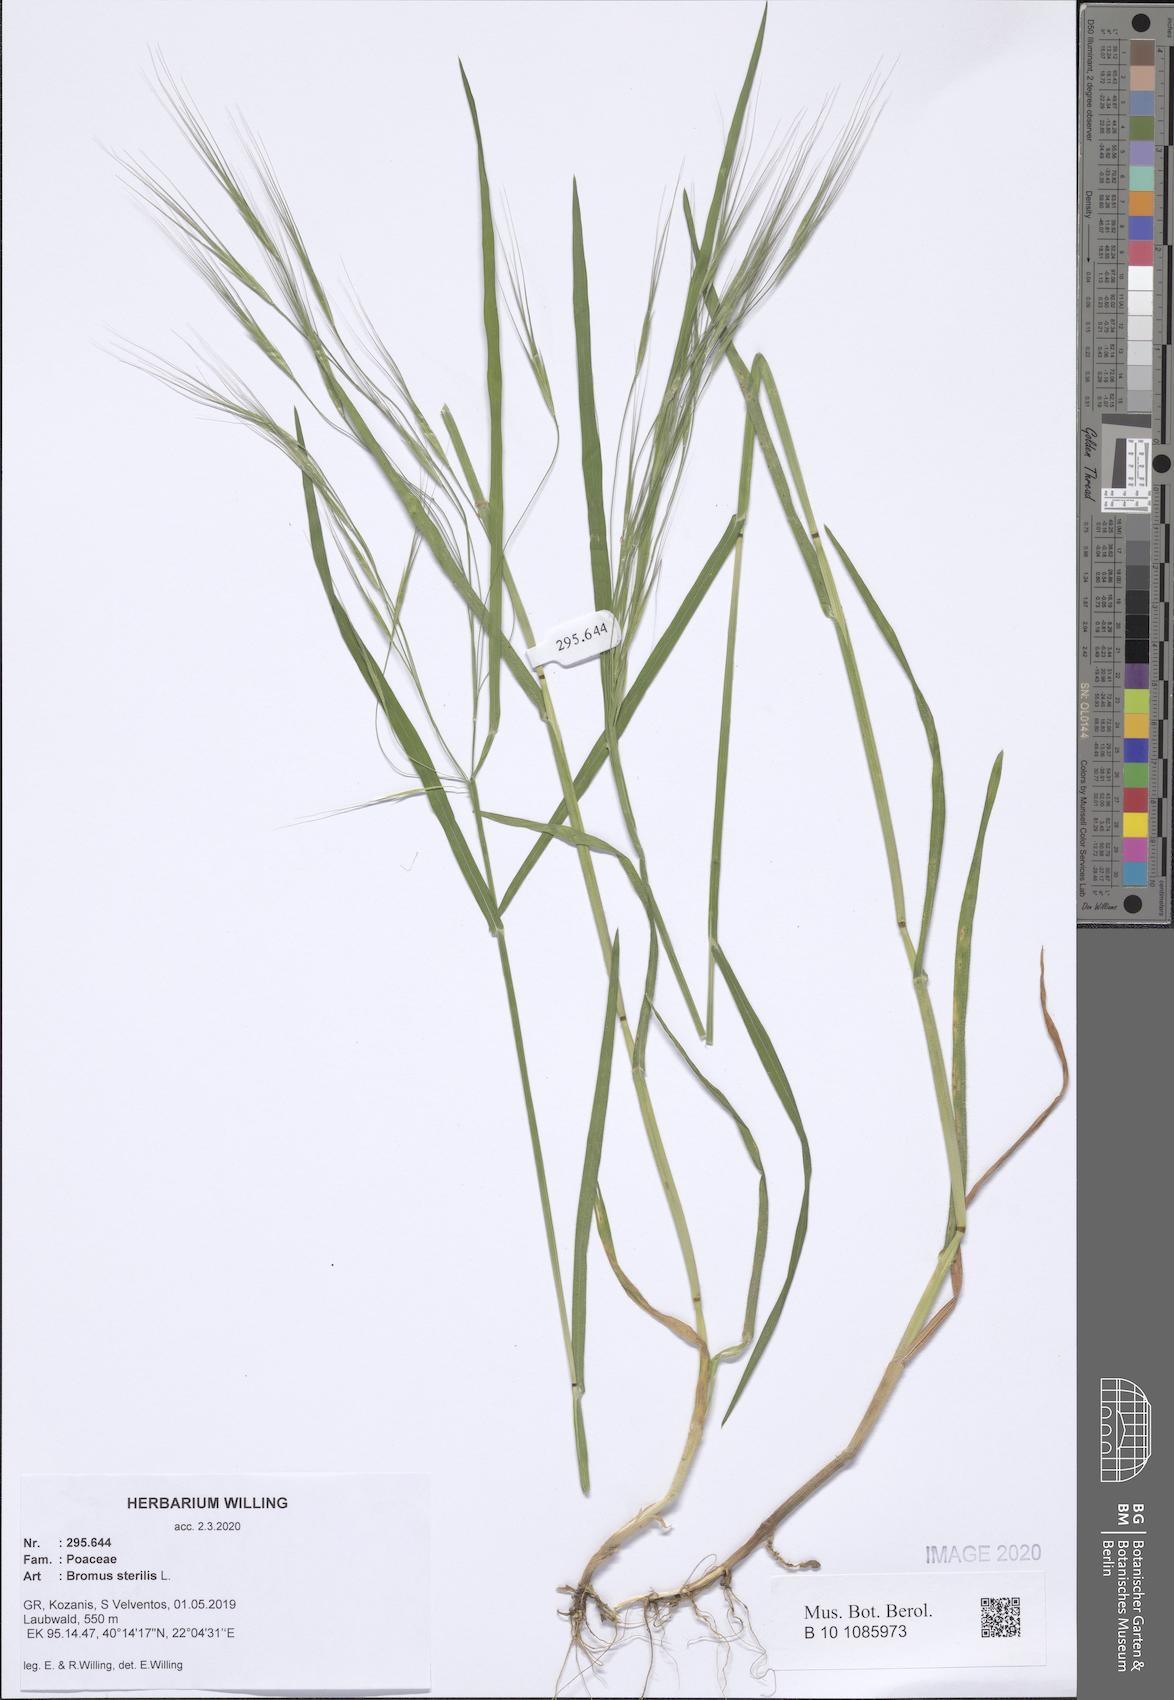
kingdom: Plantae
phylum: Tracheophyta
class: Liliopsida
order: Poales
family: Poaceae
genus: Bromus
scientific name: Bromus sterilis
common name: Poverty brome
